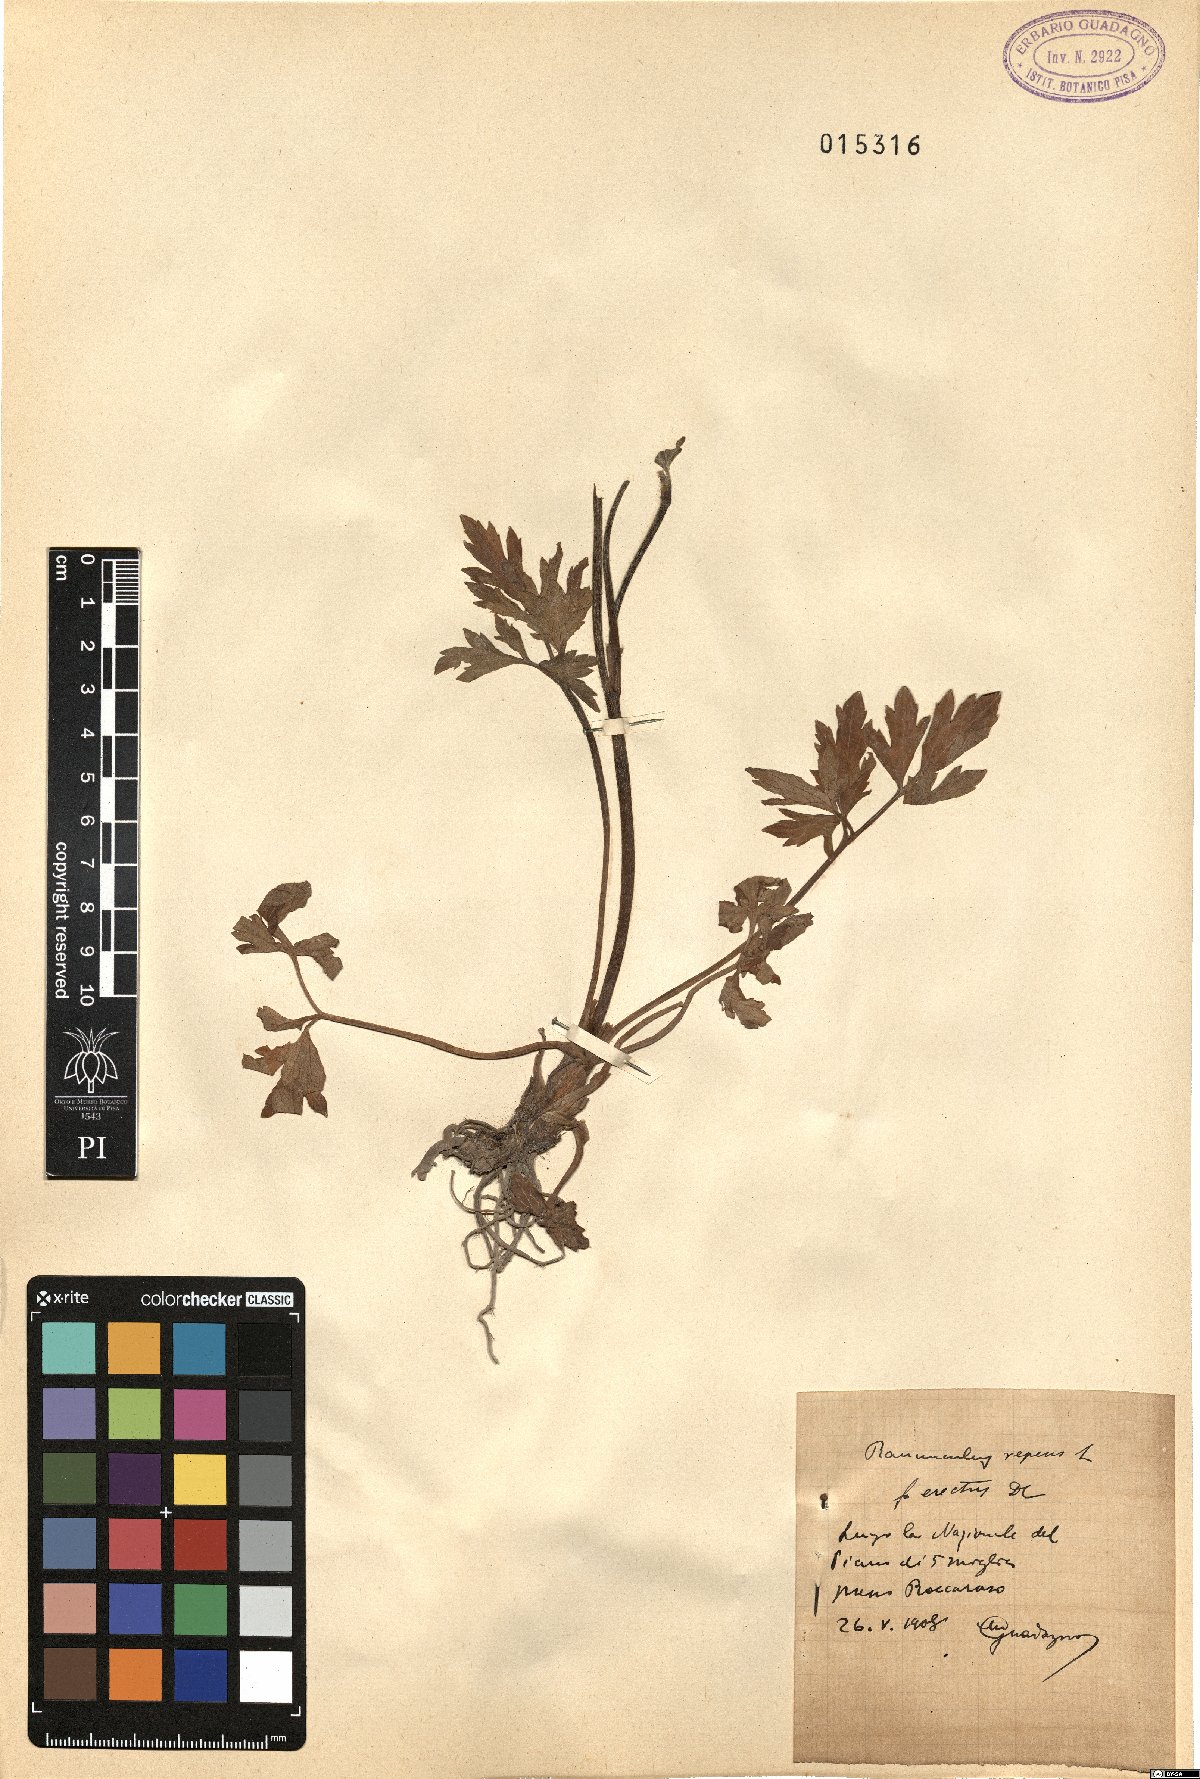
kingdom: Plantae
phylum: Tracheophyta
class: Magnoliopsida
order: Ranunculales
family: Ranunculaceae
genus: Ranunculus
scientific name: Ranunculus repens
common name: Creeping buttercup
